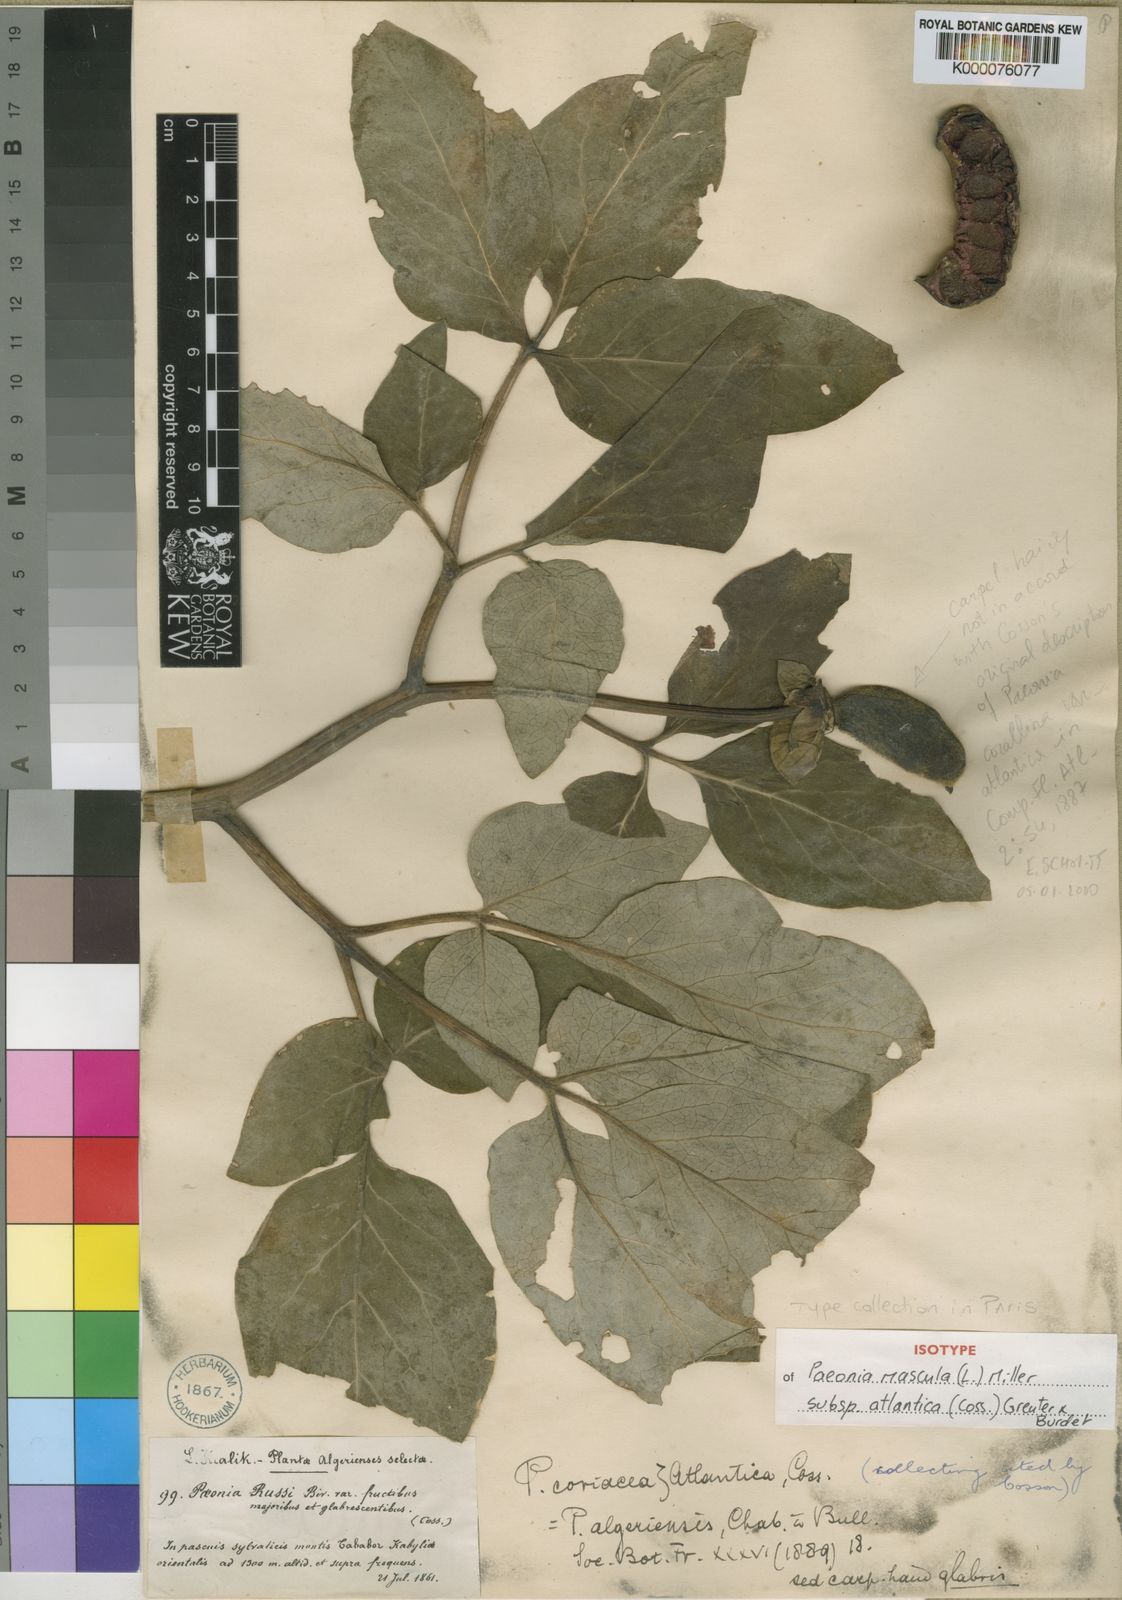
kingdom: Plantae
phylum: Tracheophyta
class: Magnoliopsida
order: Saxifragales
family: Paeoniaceae
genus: Paeonia
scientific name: Paeonia algeriensis
